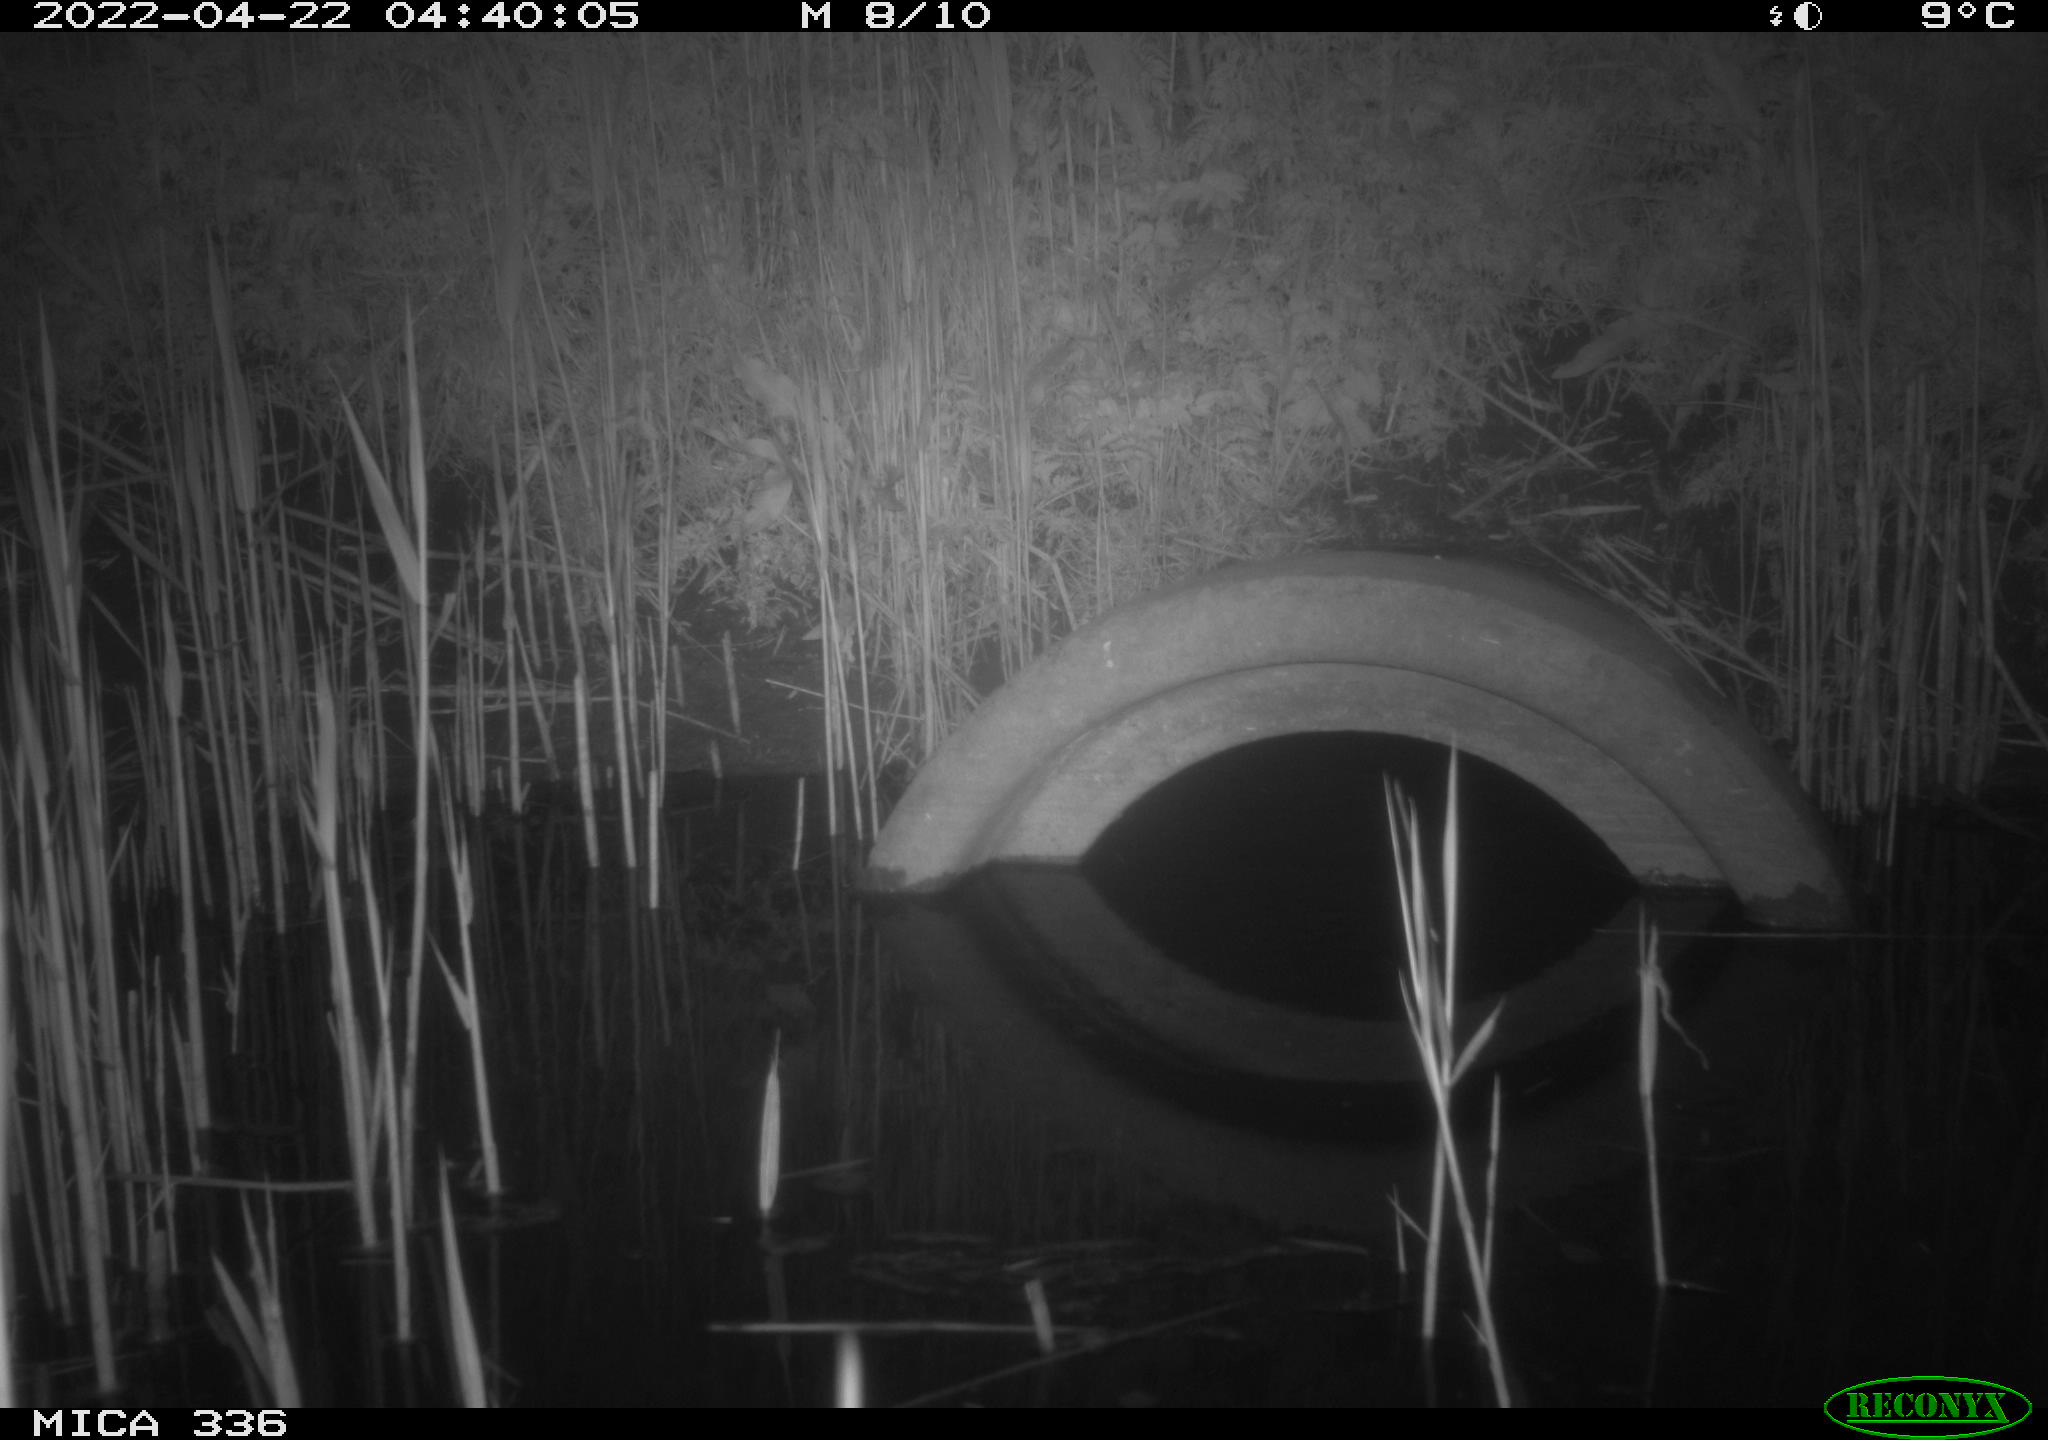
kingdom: Animalia
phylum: Chordata
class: Mammalia
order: Rodentia
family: Muridae
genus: Rattus
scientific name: Rattus norvegicus
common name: Brown rat
